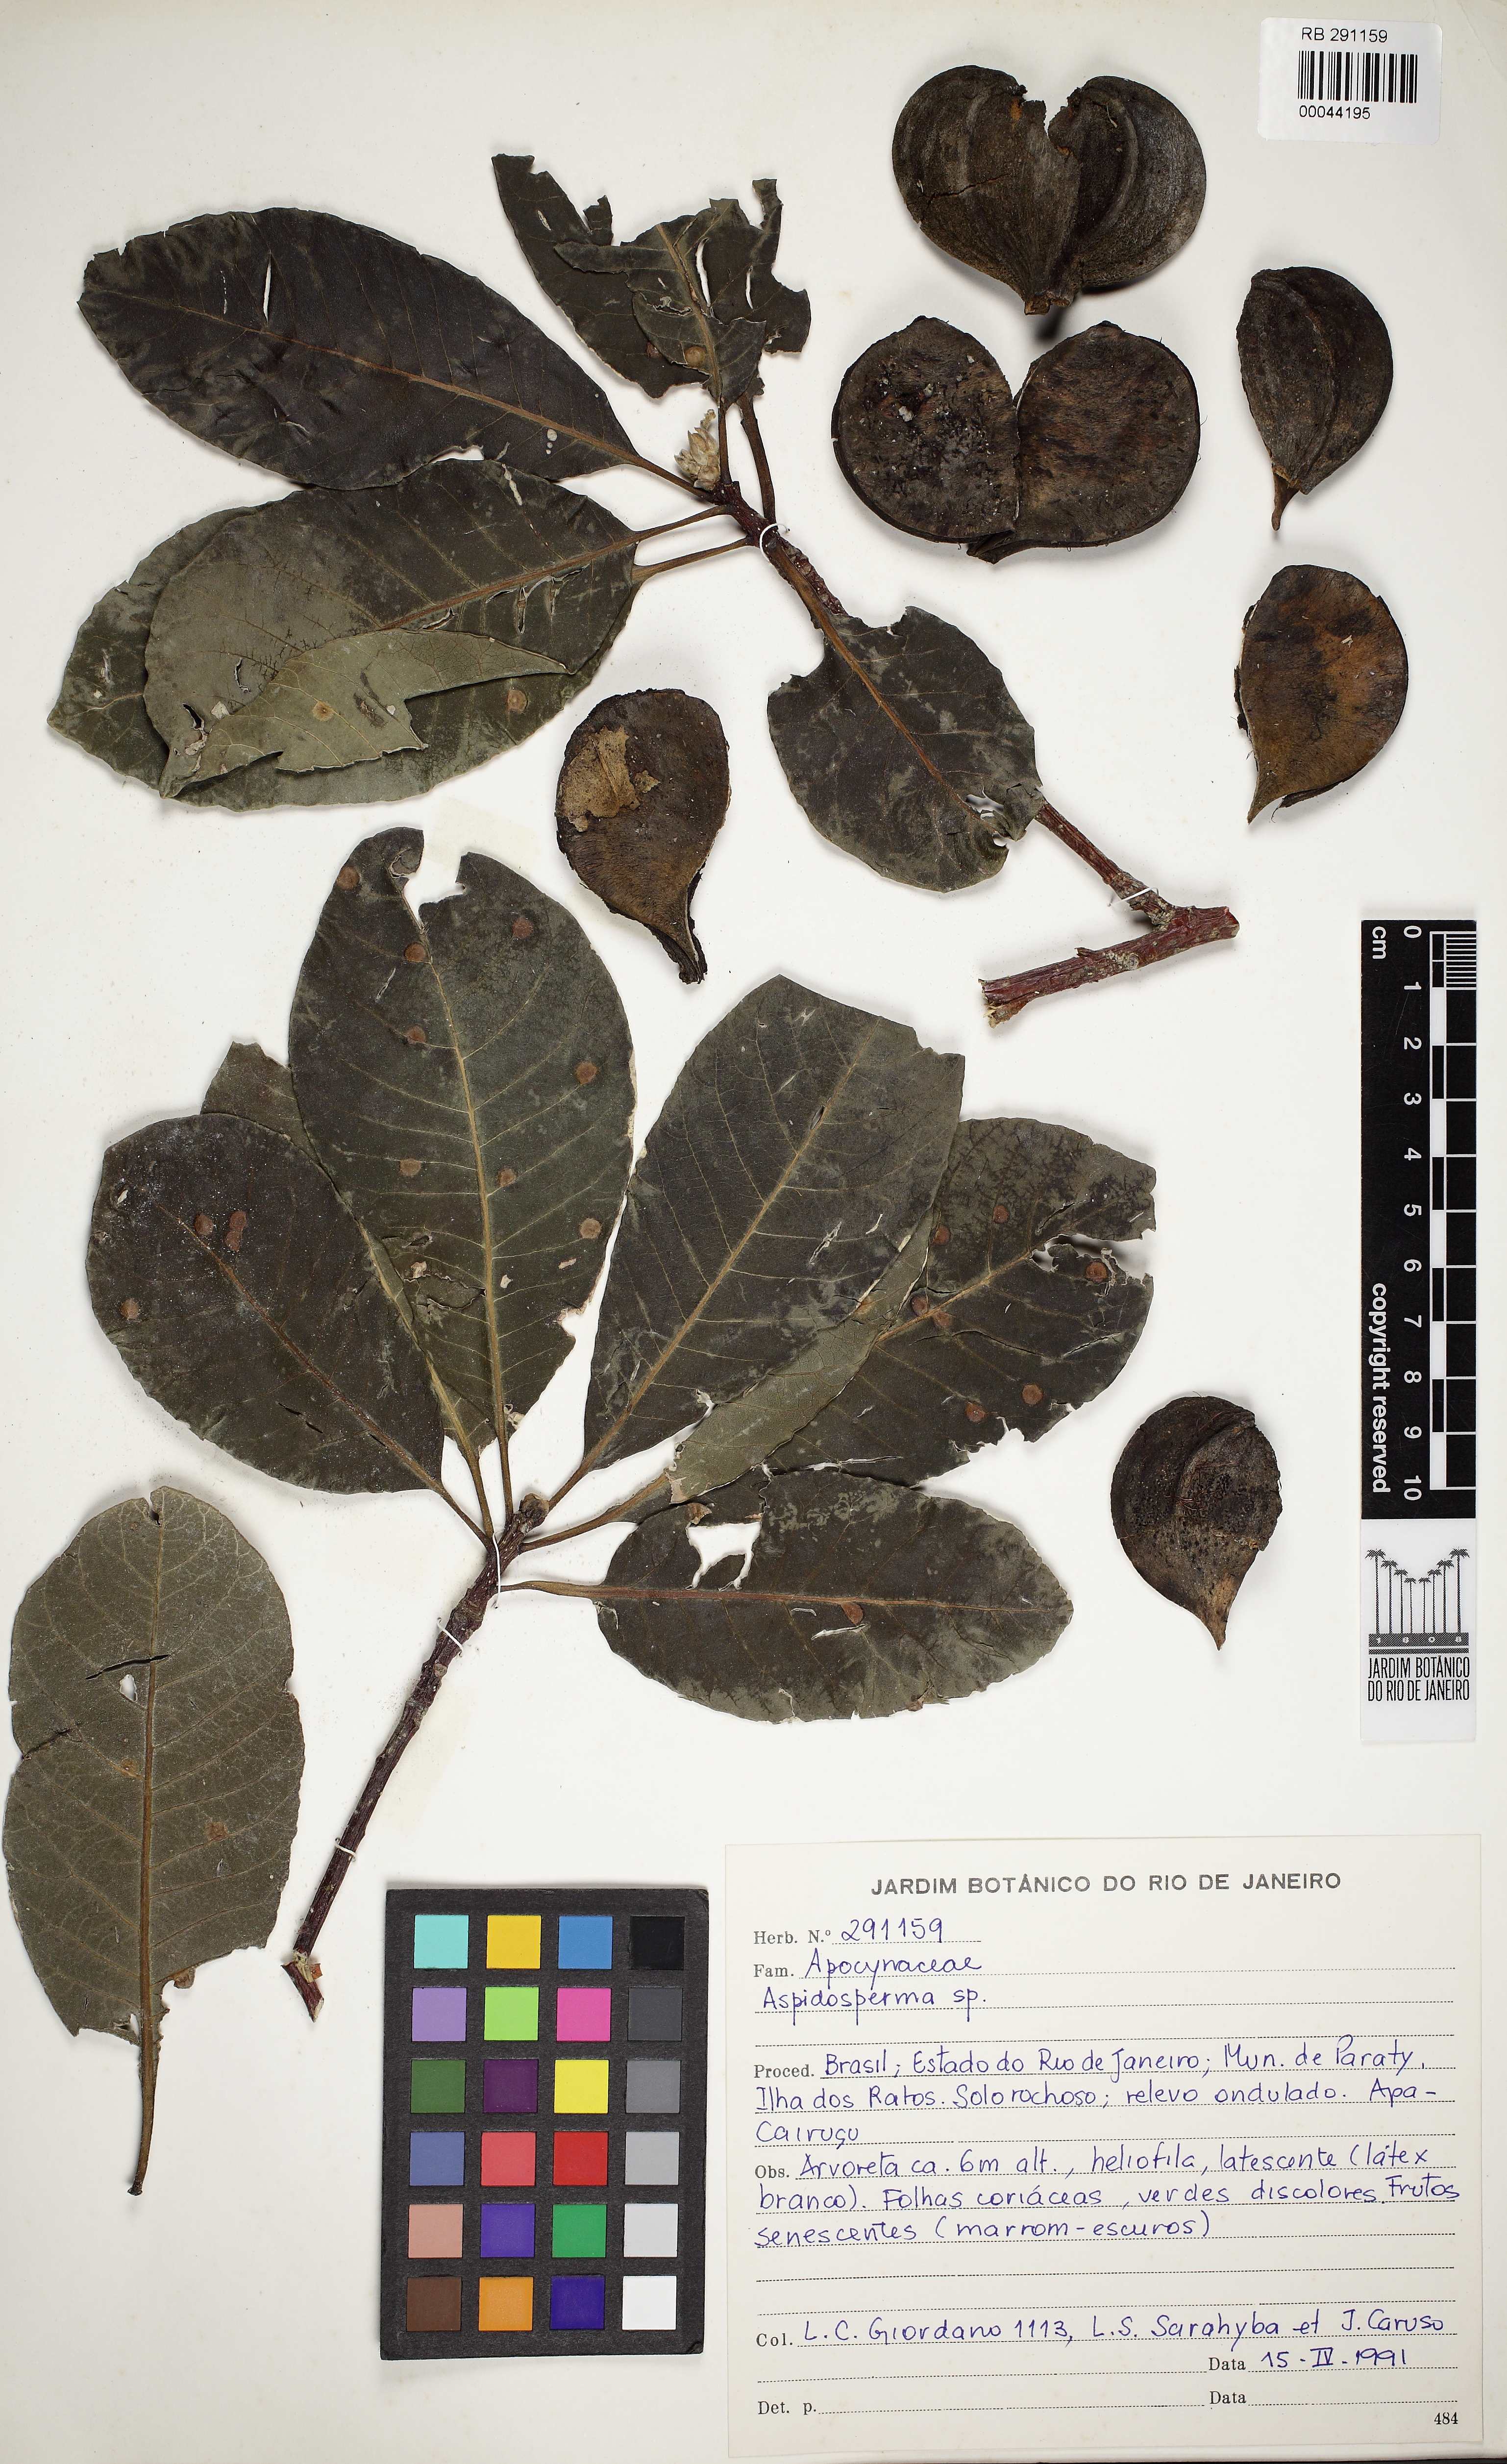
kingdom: Plantae
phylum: Tracheophyta
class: Magnoliopsida
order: Gentianales
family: Apocynaceae
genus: Aspidosperma
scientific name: Aspidosperma gomezianum
